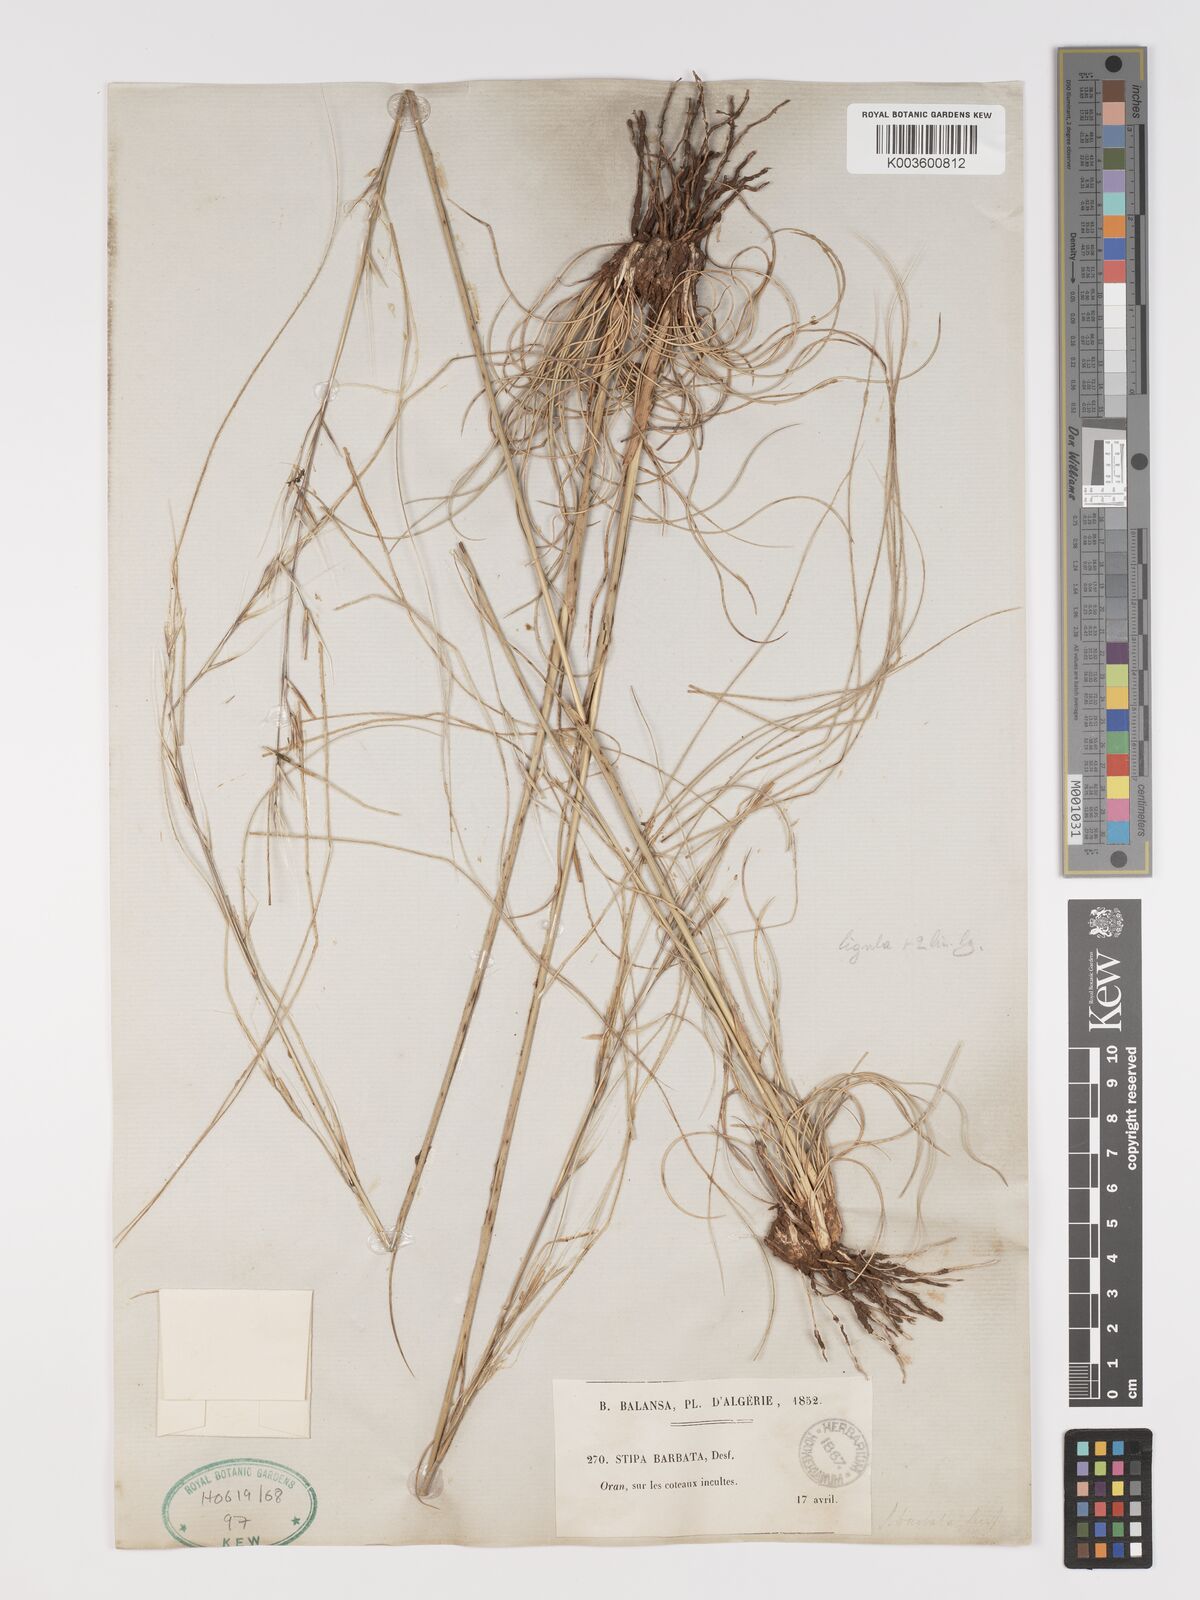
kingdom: Plantae
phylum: Tracheophyta
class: Liliopsida
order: Poales
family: Poaceae
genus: Stipa
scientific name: Stipa barbata
